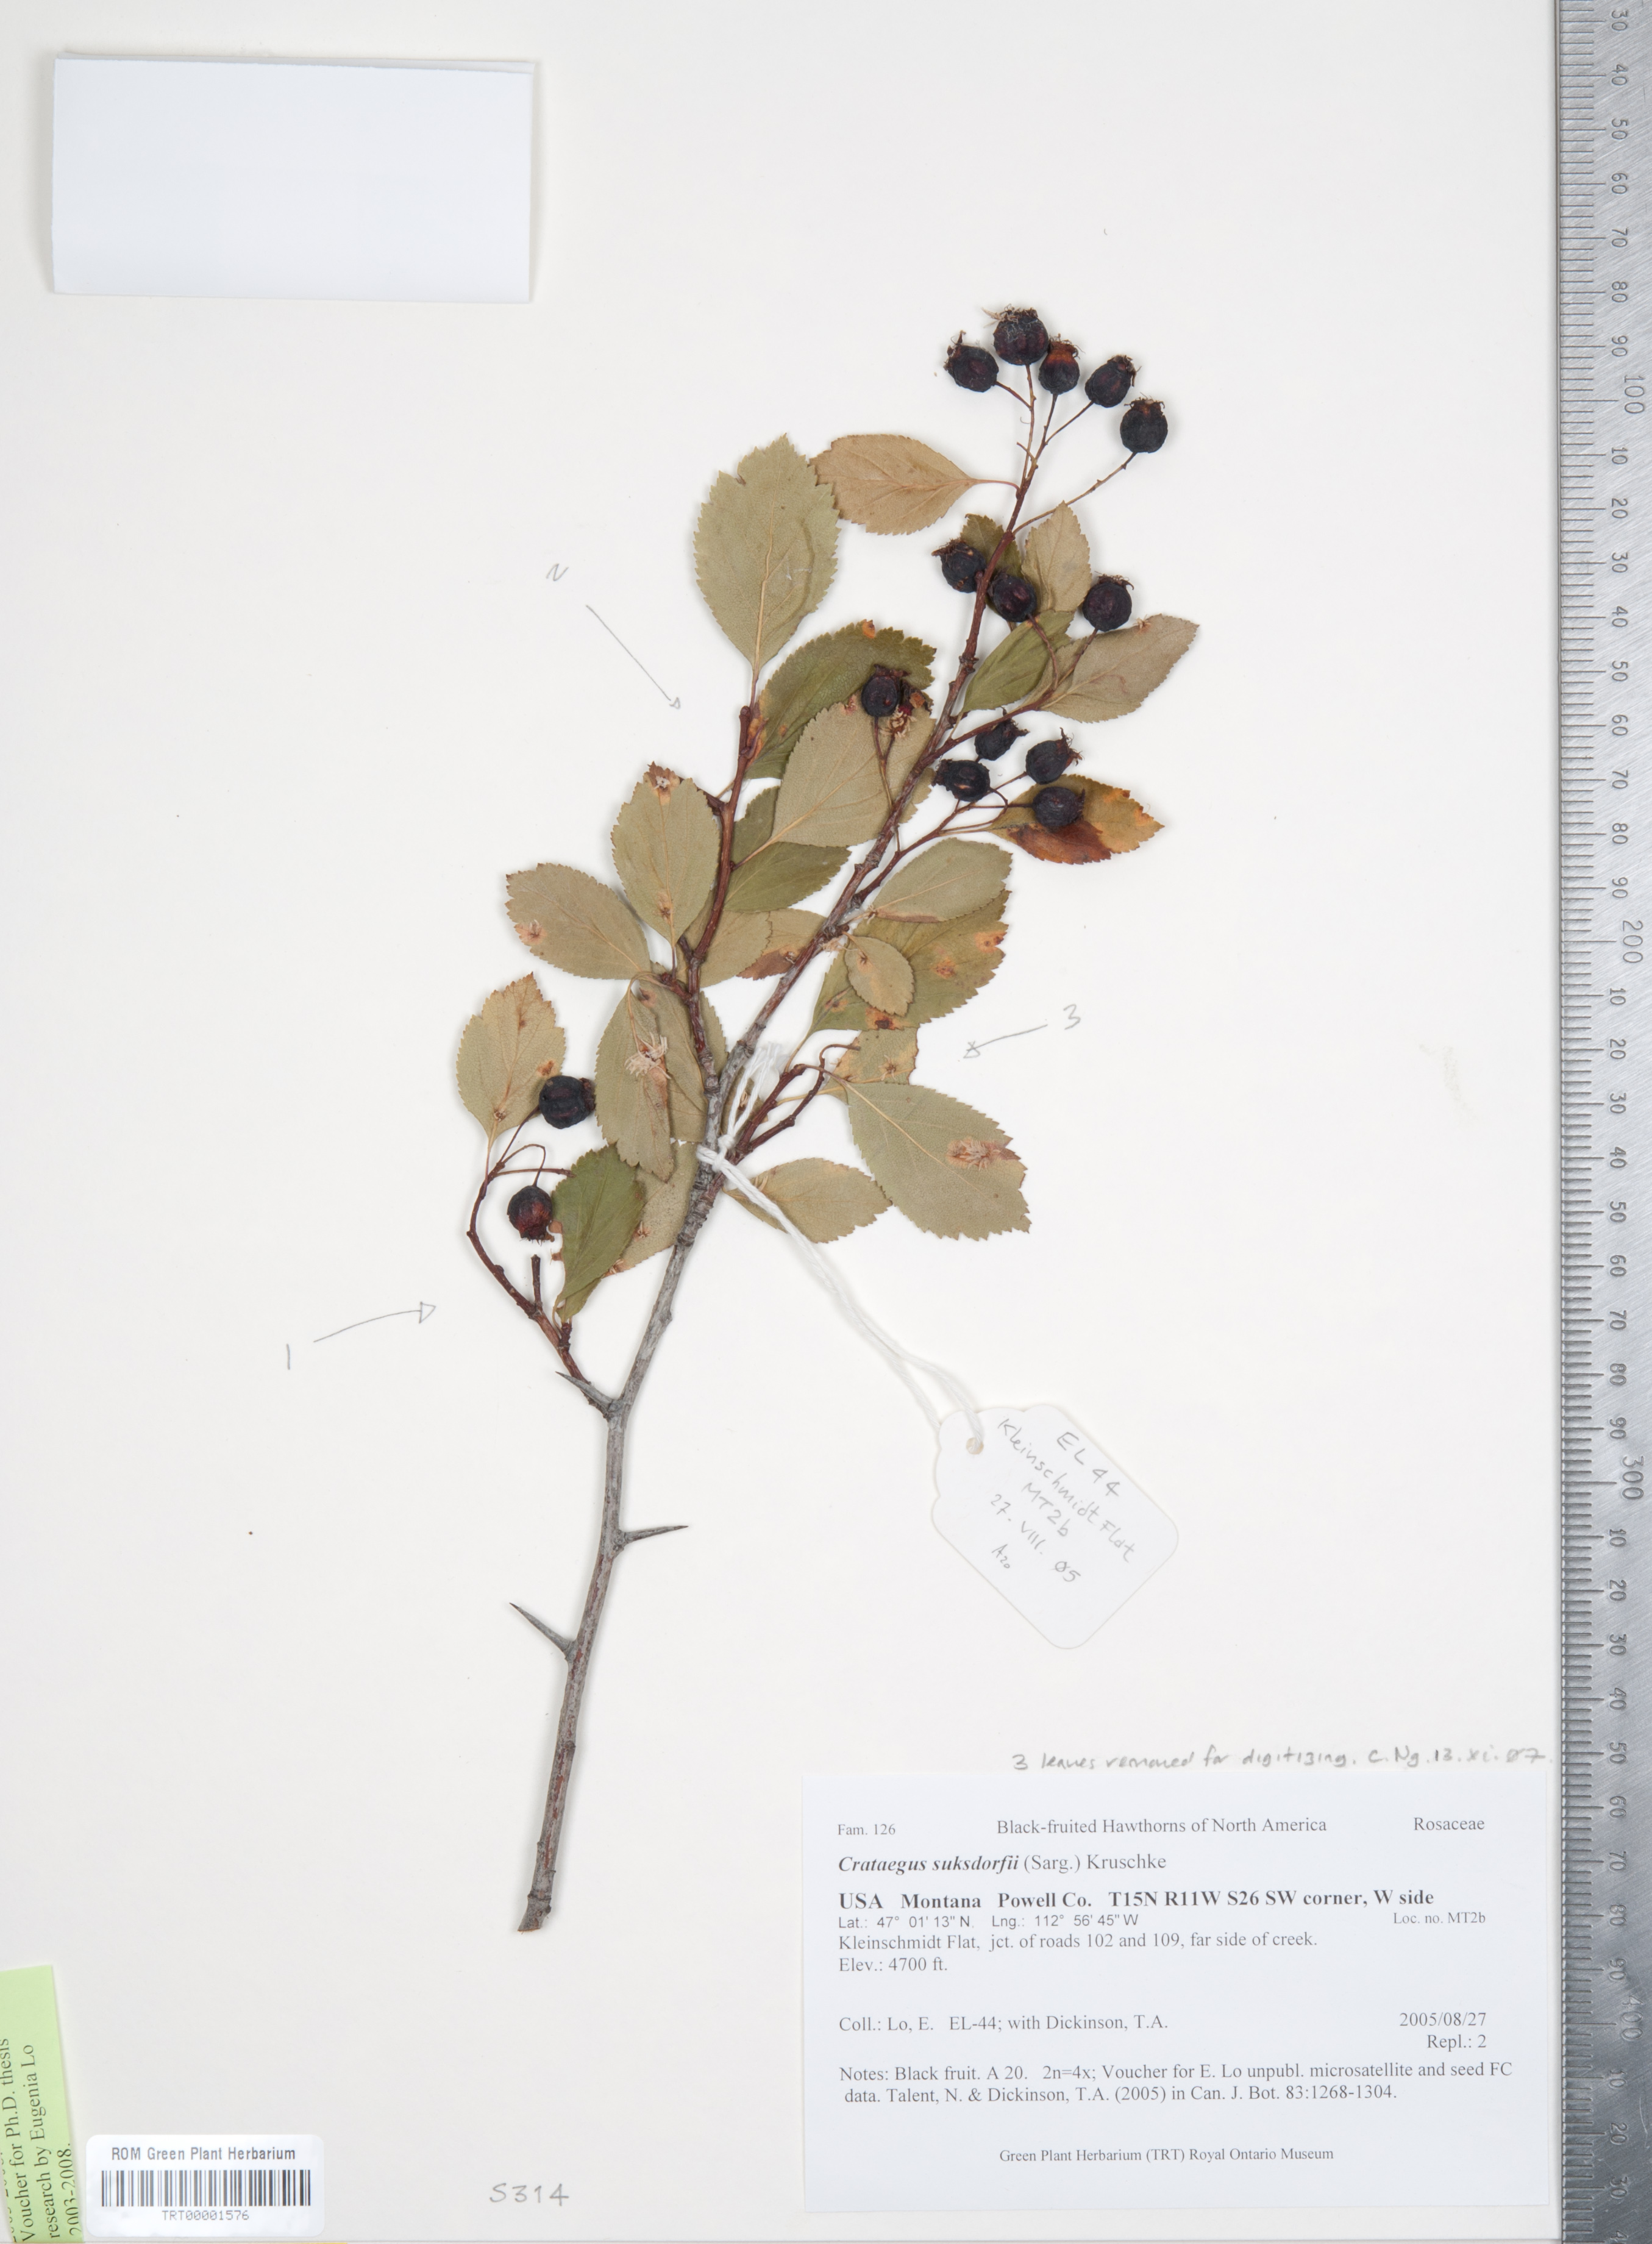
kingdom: Plantae
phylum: Tracheophyta
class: Magnoliopsida
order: Rosales
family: Rosaceae
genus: Crataegus
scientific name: Crataegus gaylussacia
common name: Huckleberry hawthorn
